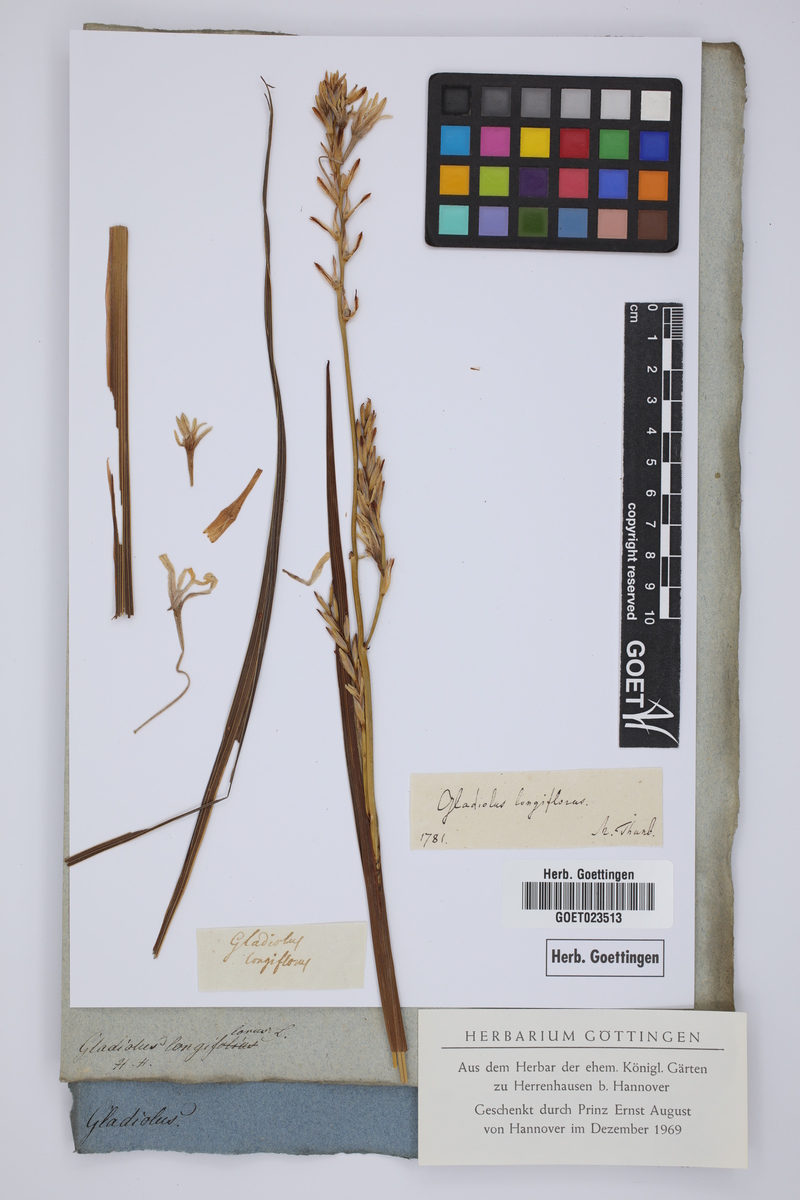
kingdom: Plantae
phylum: Tracheophyta
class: Liliopsida
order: Asparagales
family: Iridaceae
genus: Tritonia
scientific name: Tritonia cooperi
